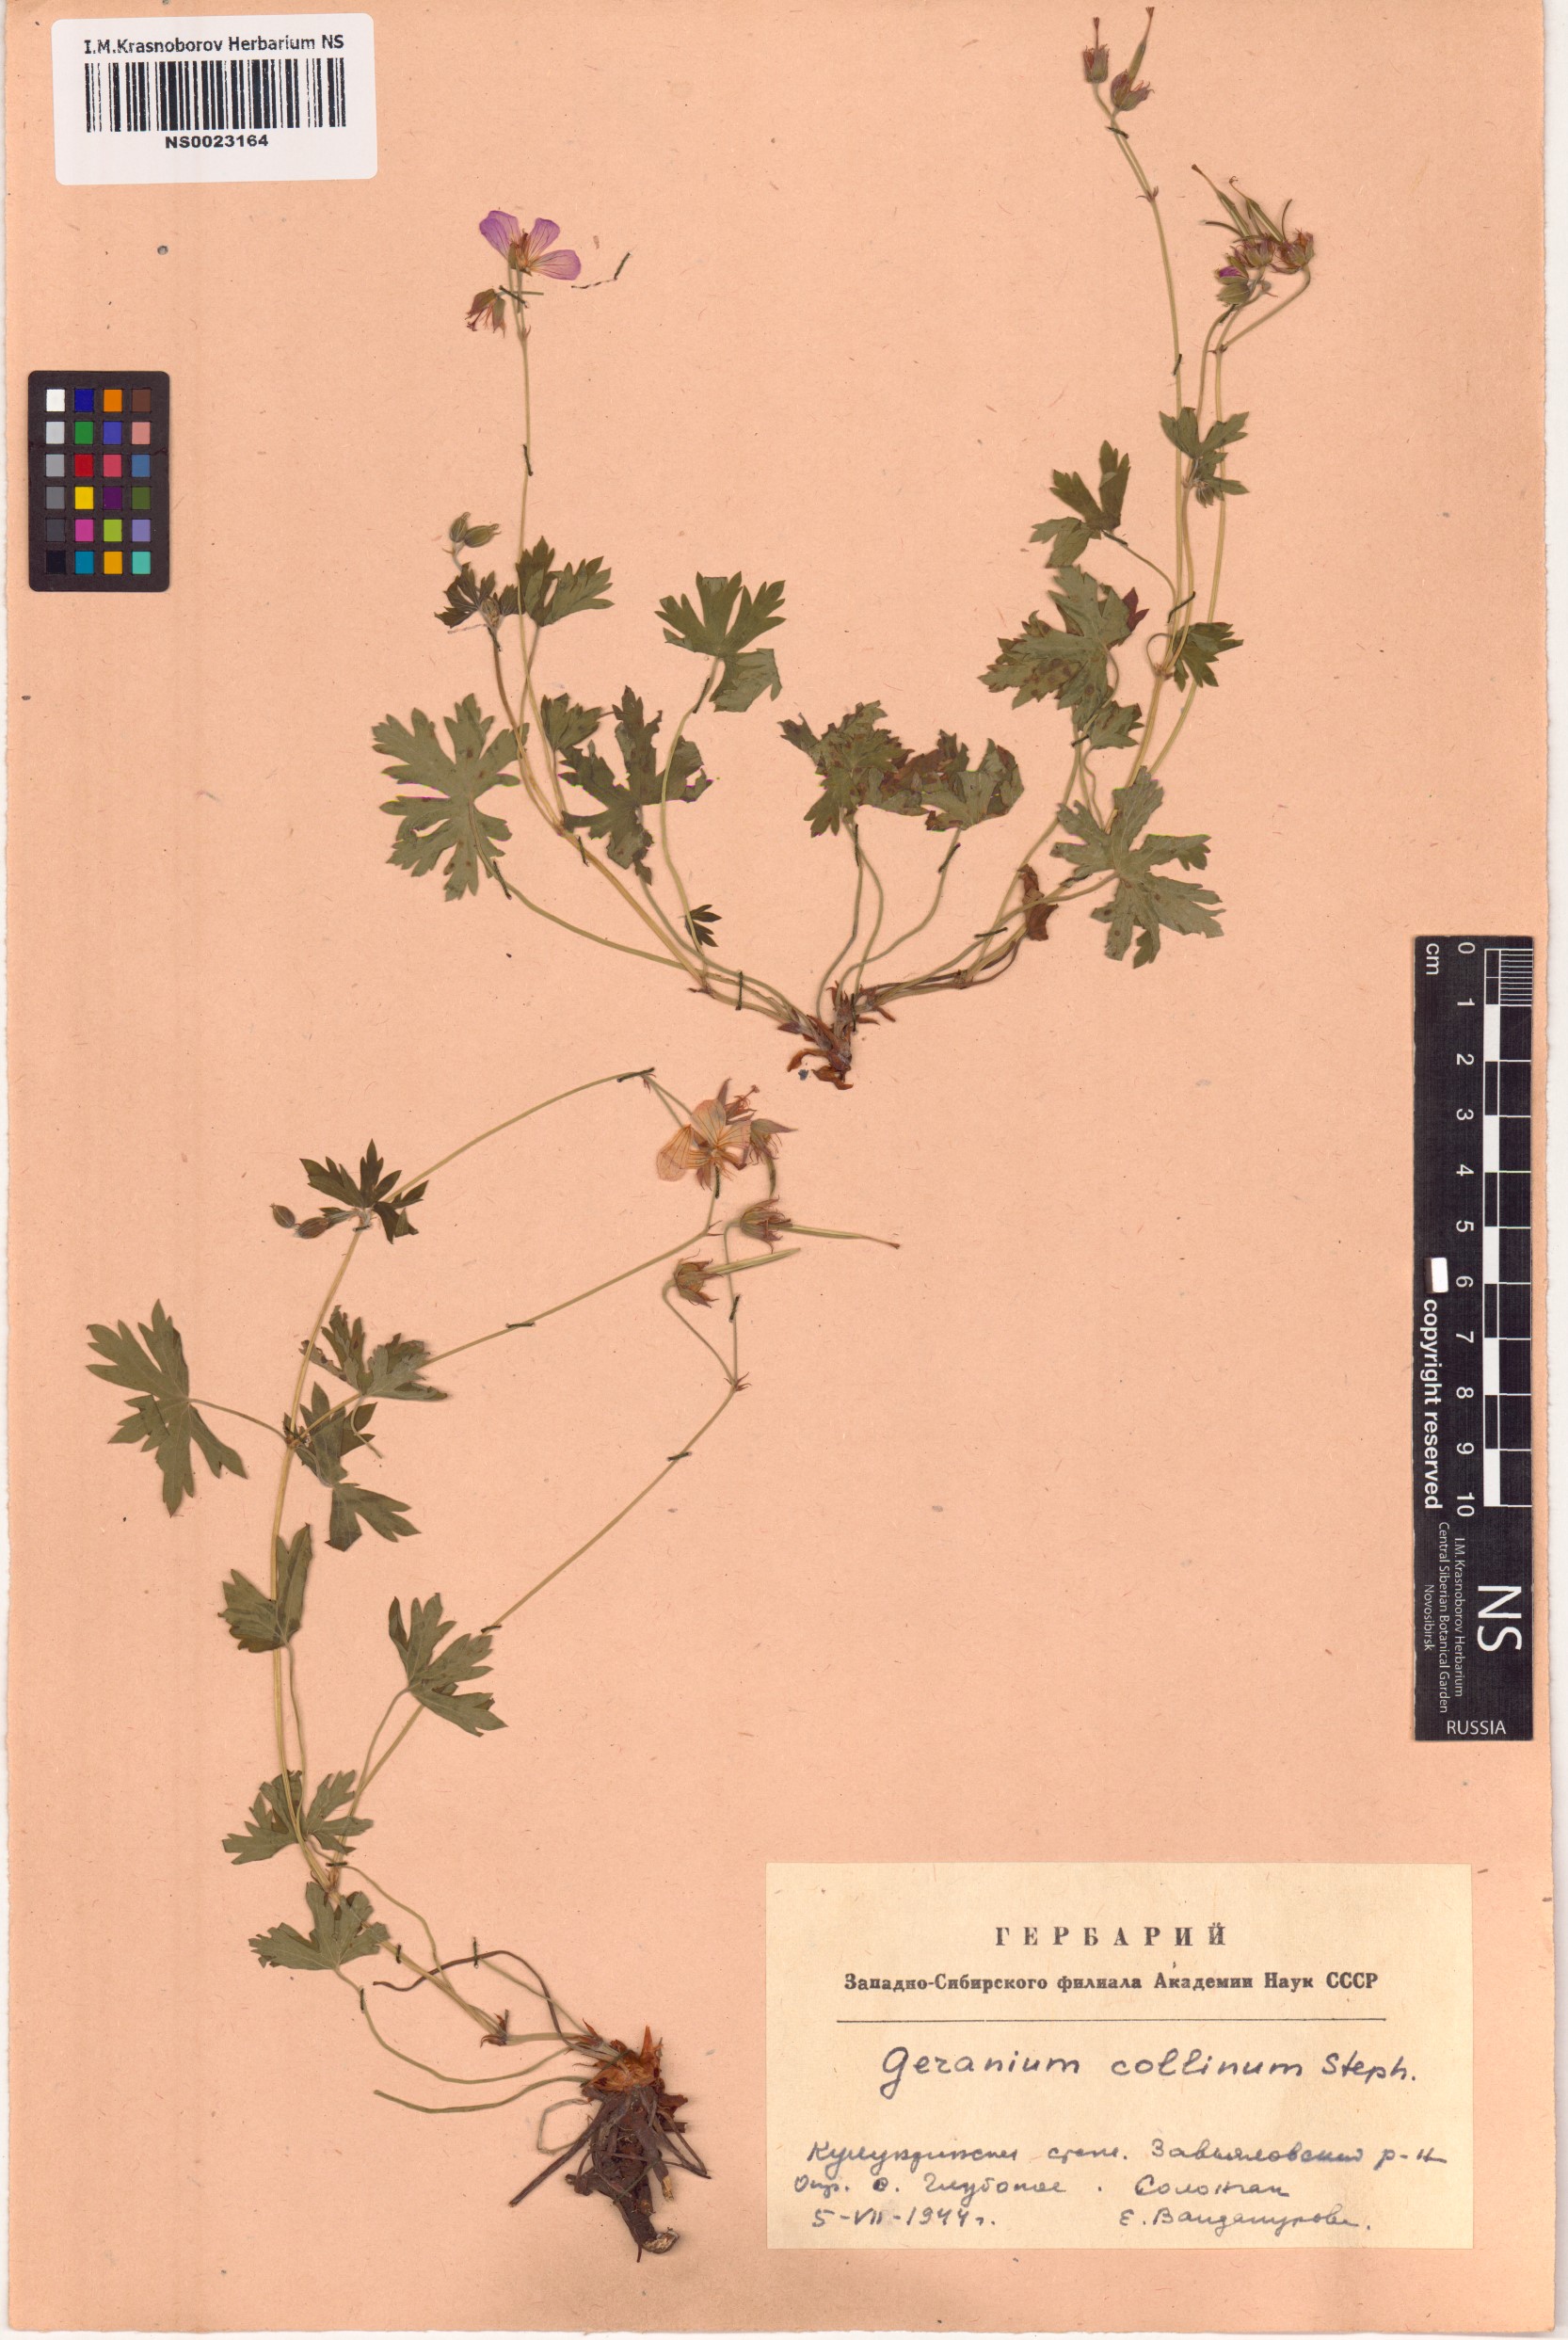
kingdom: Plantae
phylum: Tracheophyta
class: Magnoliopsida
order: Geraniales
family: Geraniaceae
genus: Geranium
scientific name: Geranium collinum
